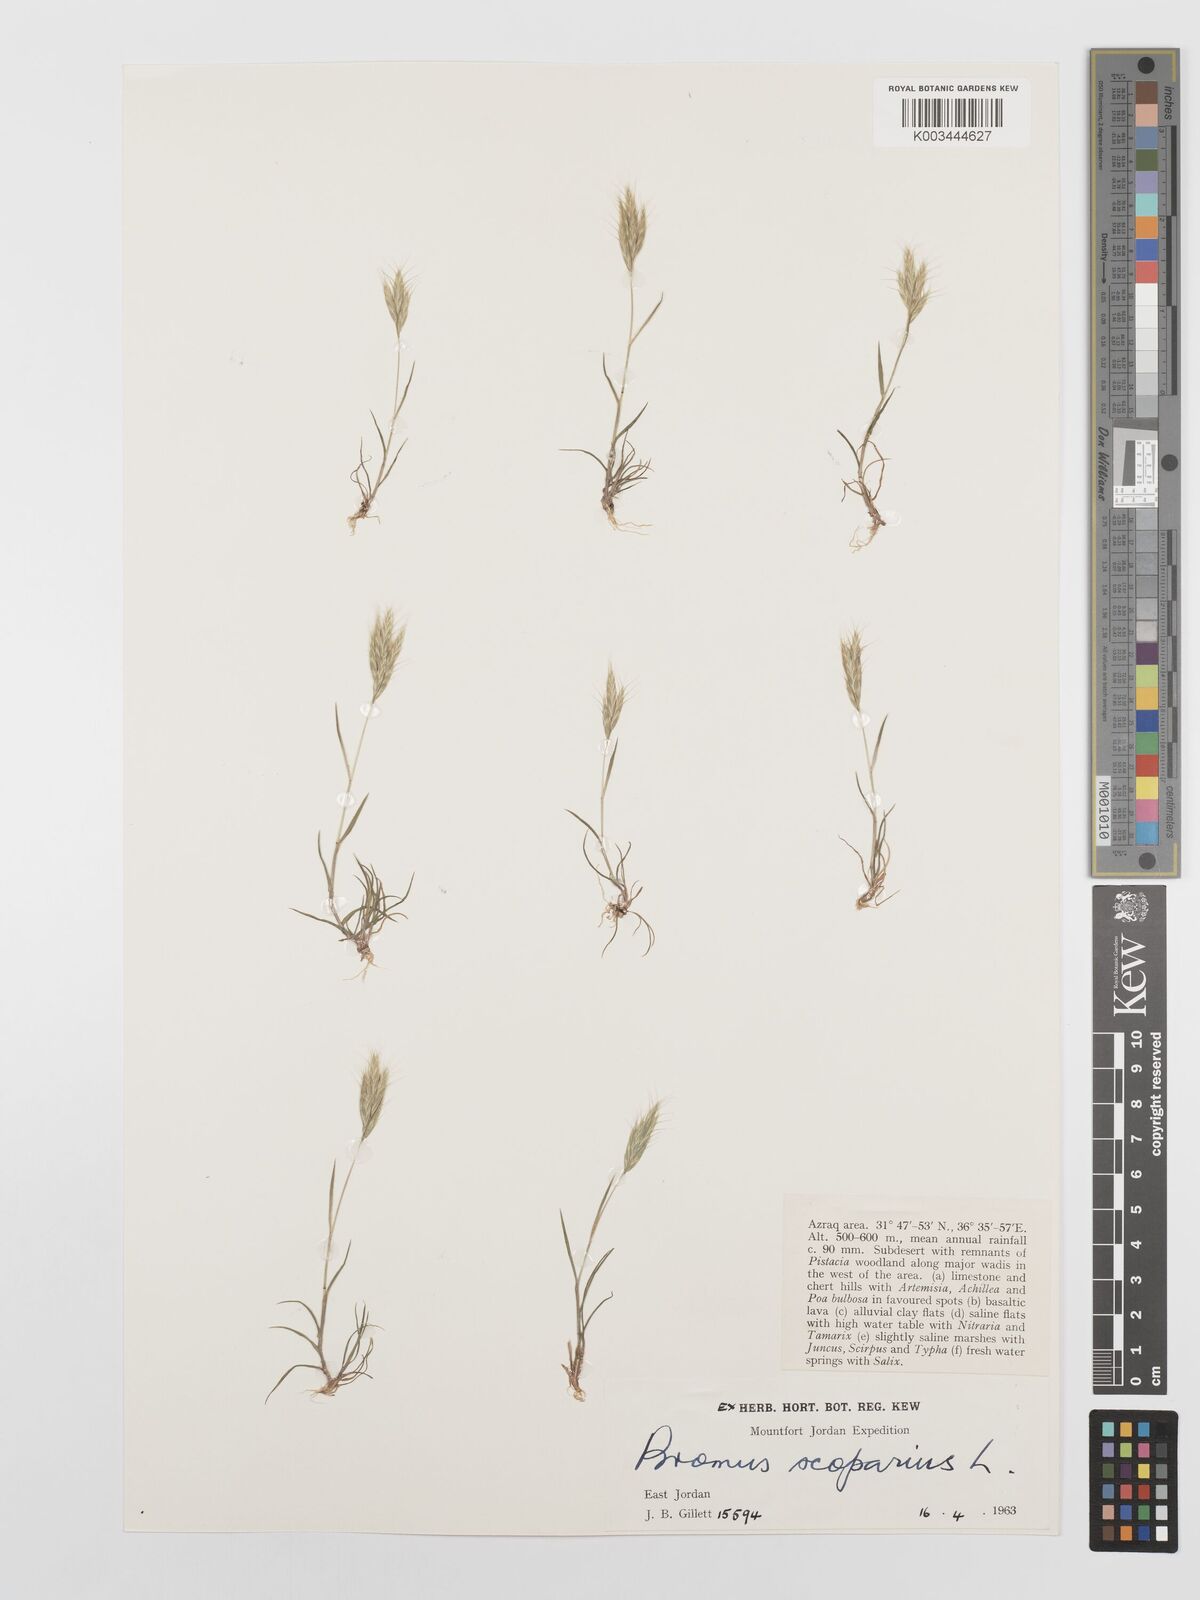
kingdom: Plantae
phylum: Tracheophyta
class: Liliopsida
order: Poales
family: Poaceae
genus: Bromus
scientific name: Bromus scoparius
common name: Broom brome
